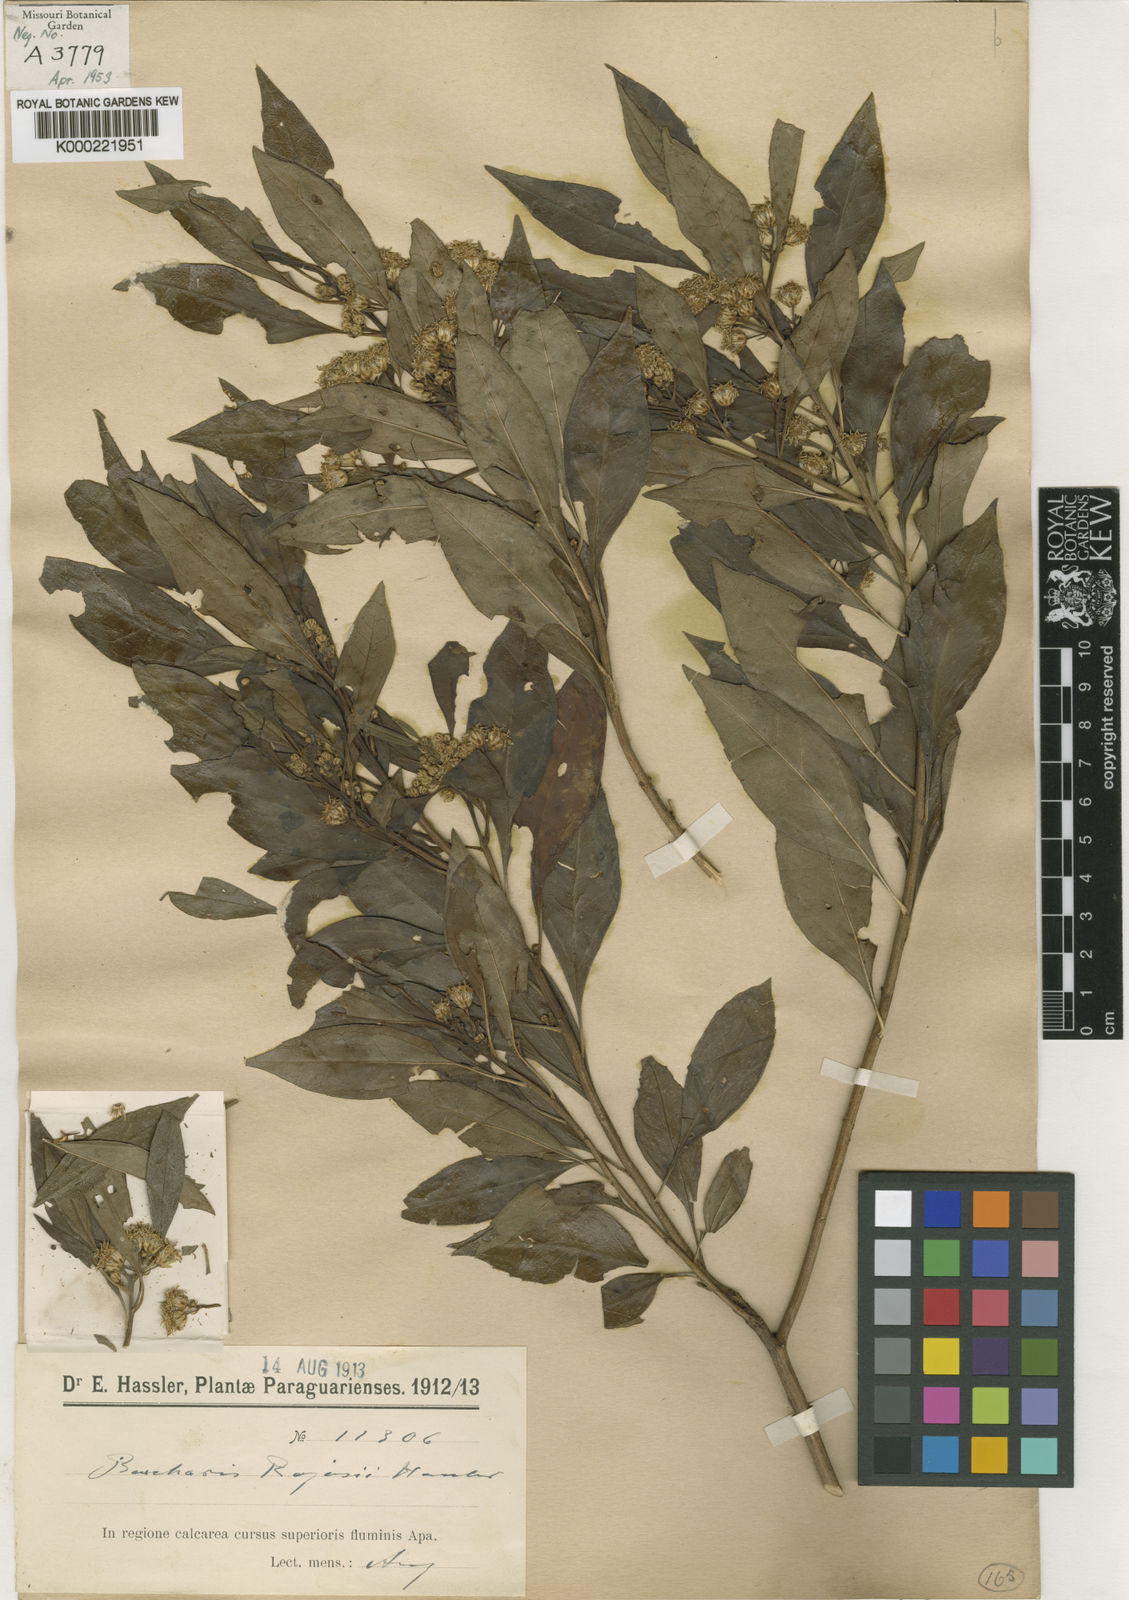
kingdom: Plantae
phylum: Tracheophyta
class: Magnoliopsida
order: Asterales
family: Asteraceae
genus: Baccharis
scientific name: Baccharis
